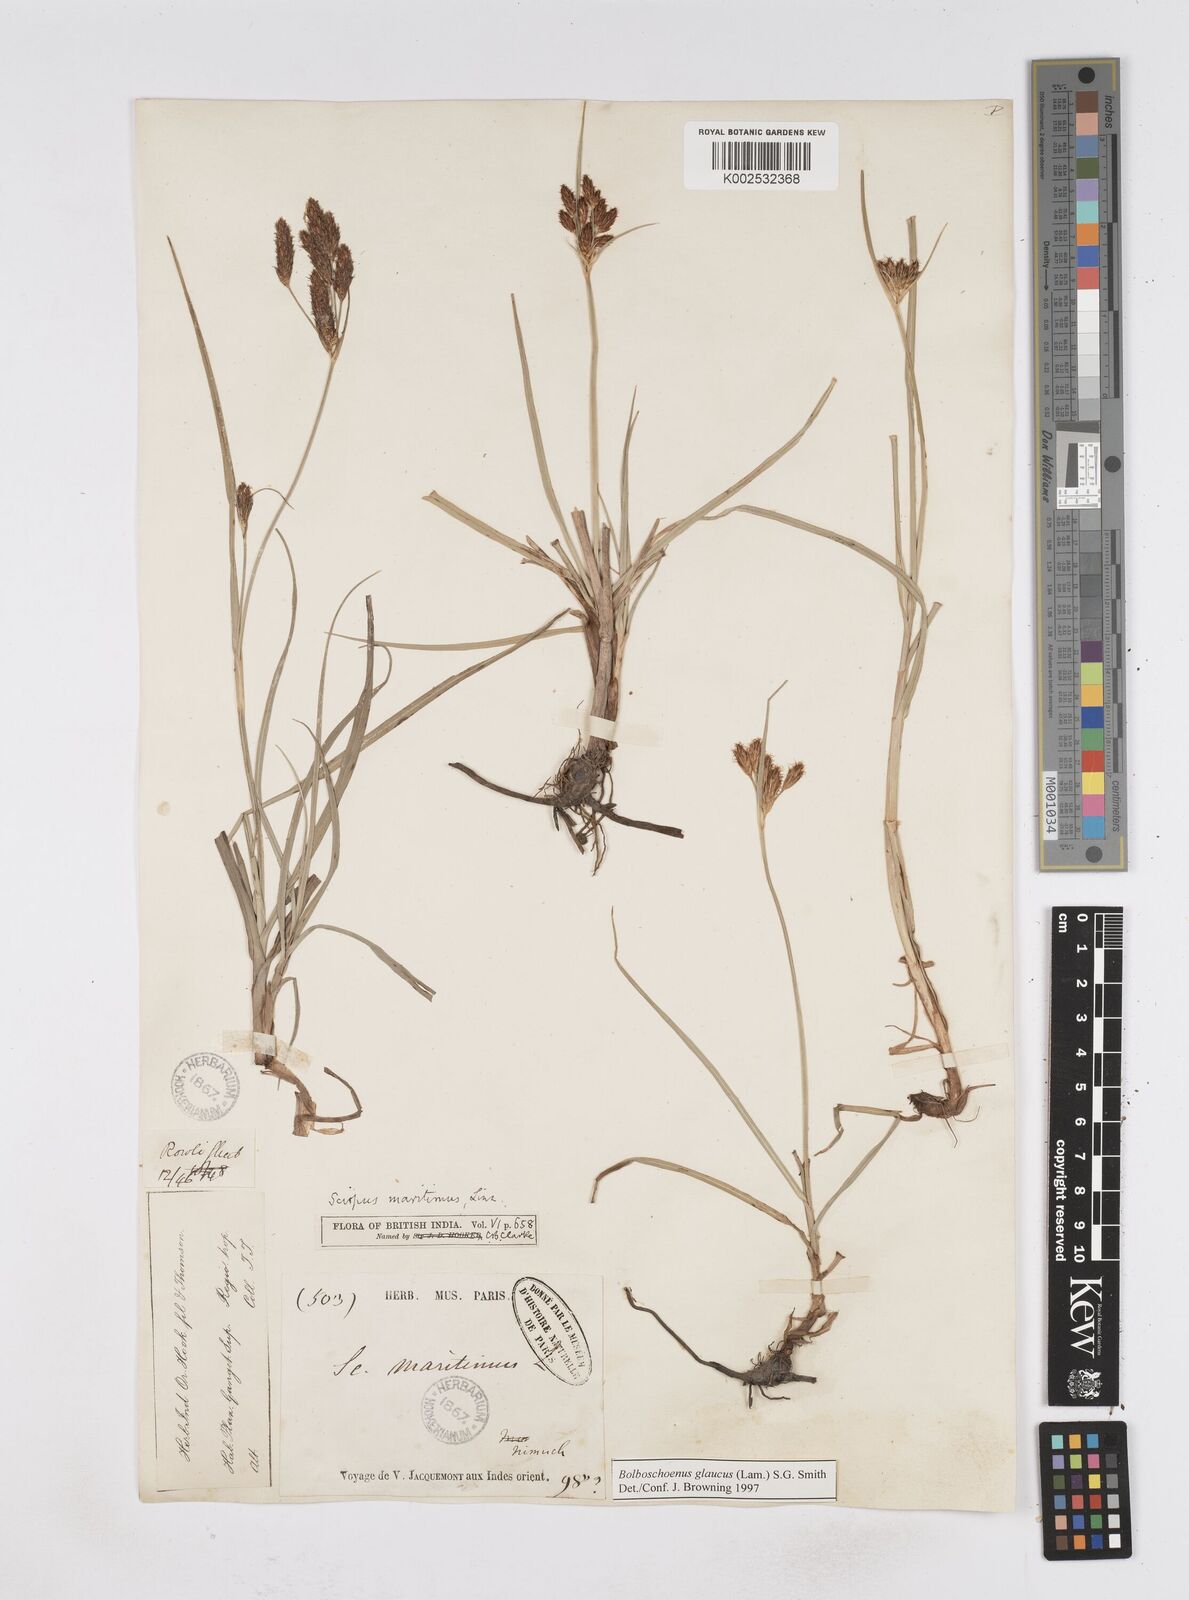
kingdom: Plantae
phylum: Tracheophyta
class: Liliopsida
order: Poales
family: Cyperaceae
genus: Bolboschoenus
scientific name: Bolboschoenus maritimus
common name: Sea club-rush
